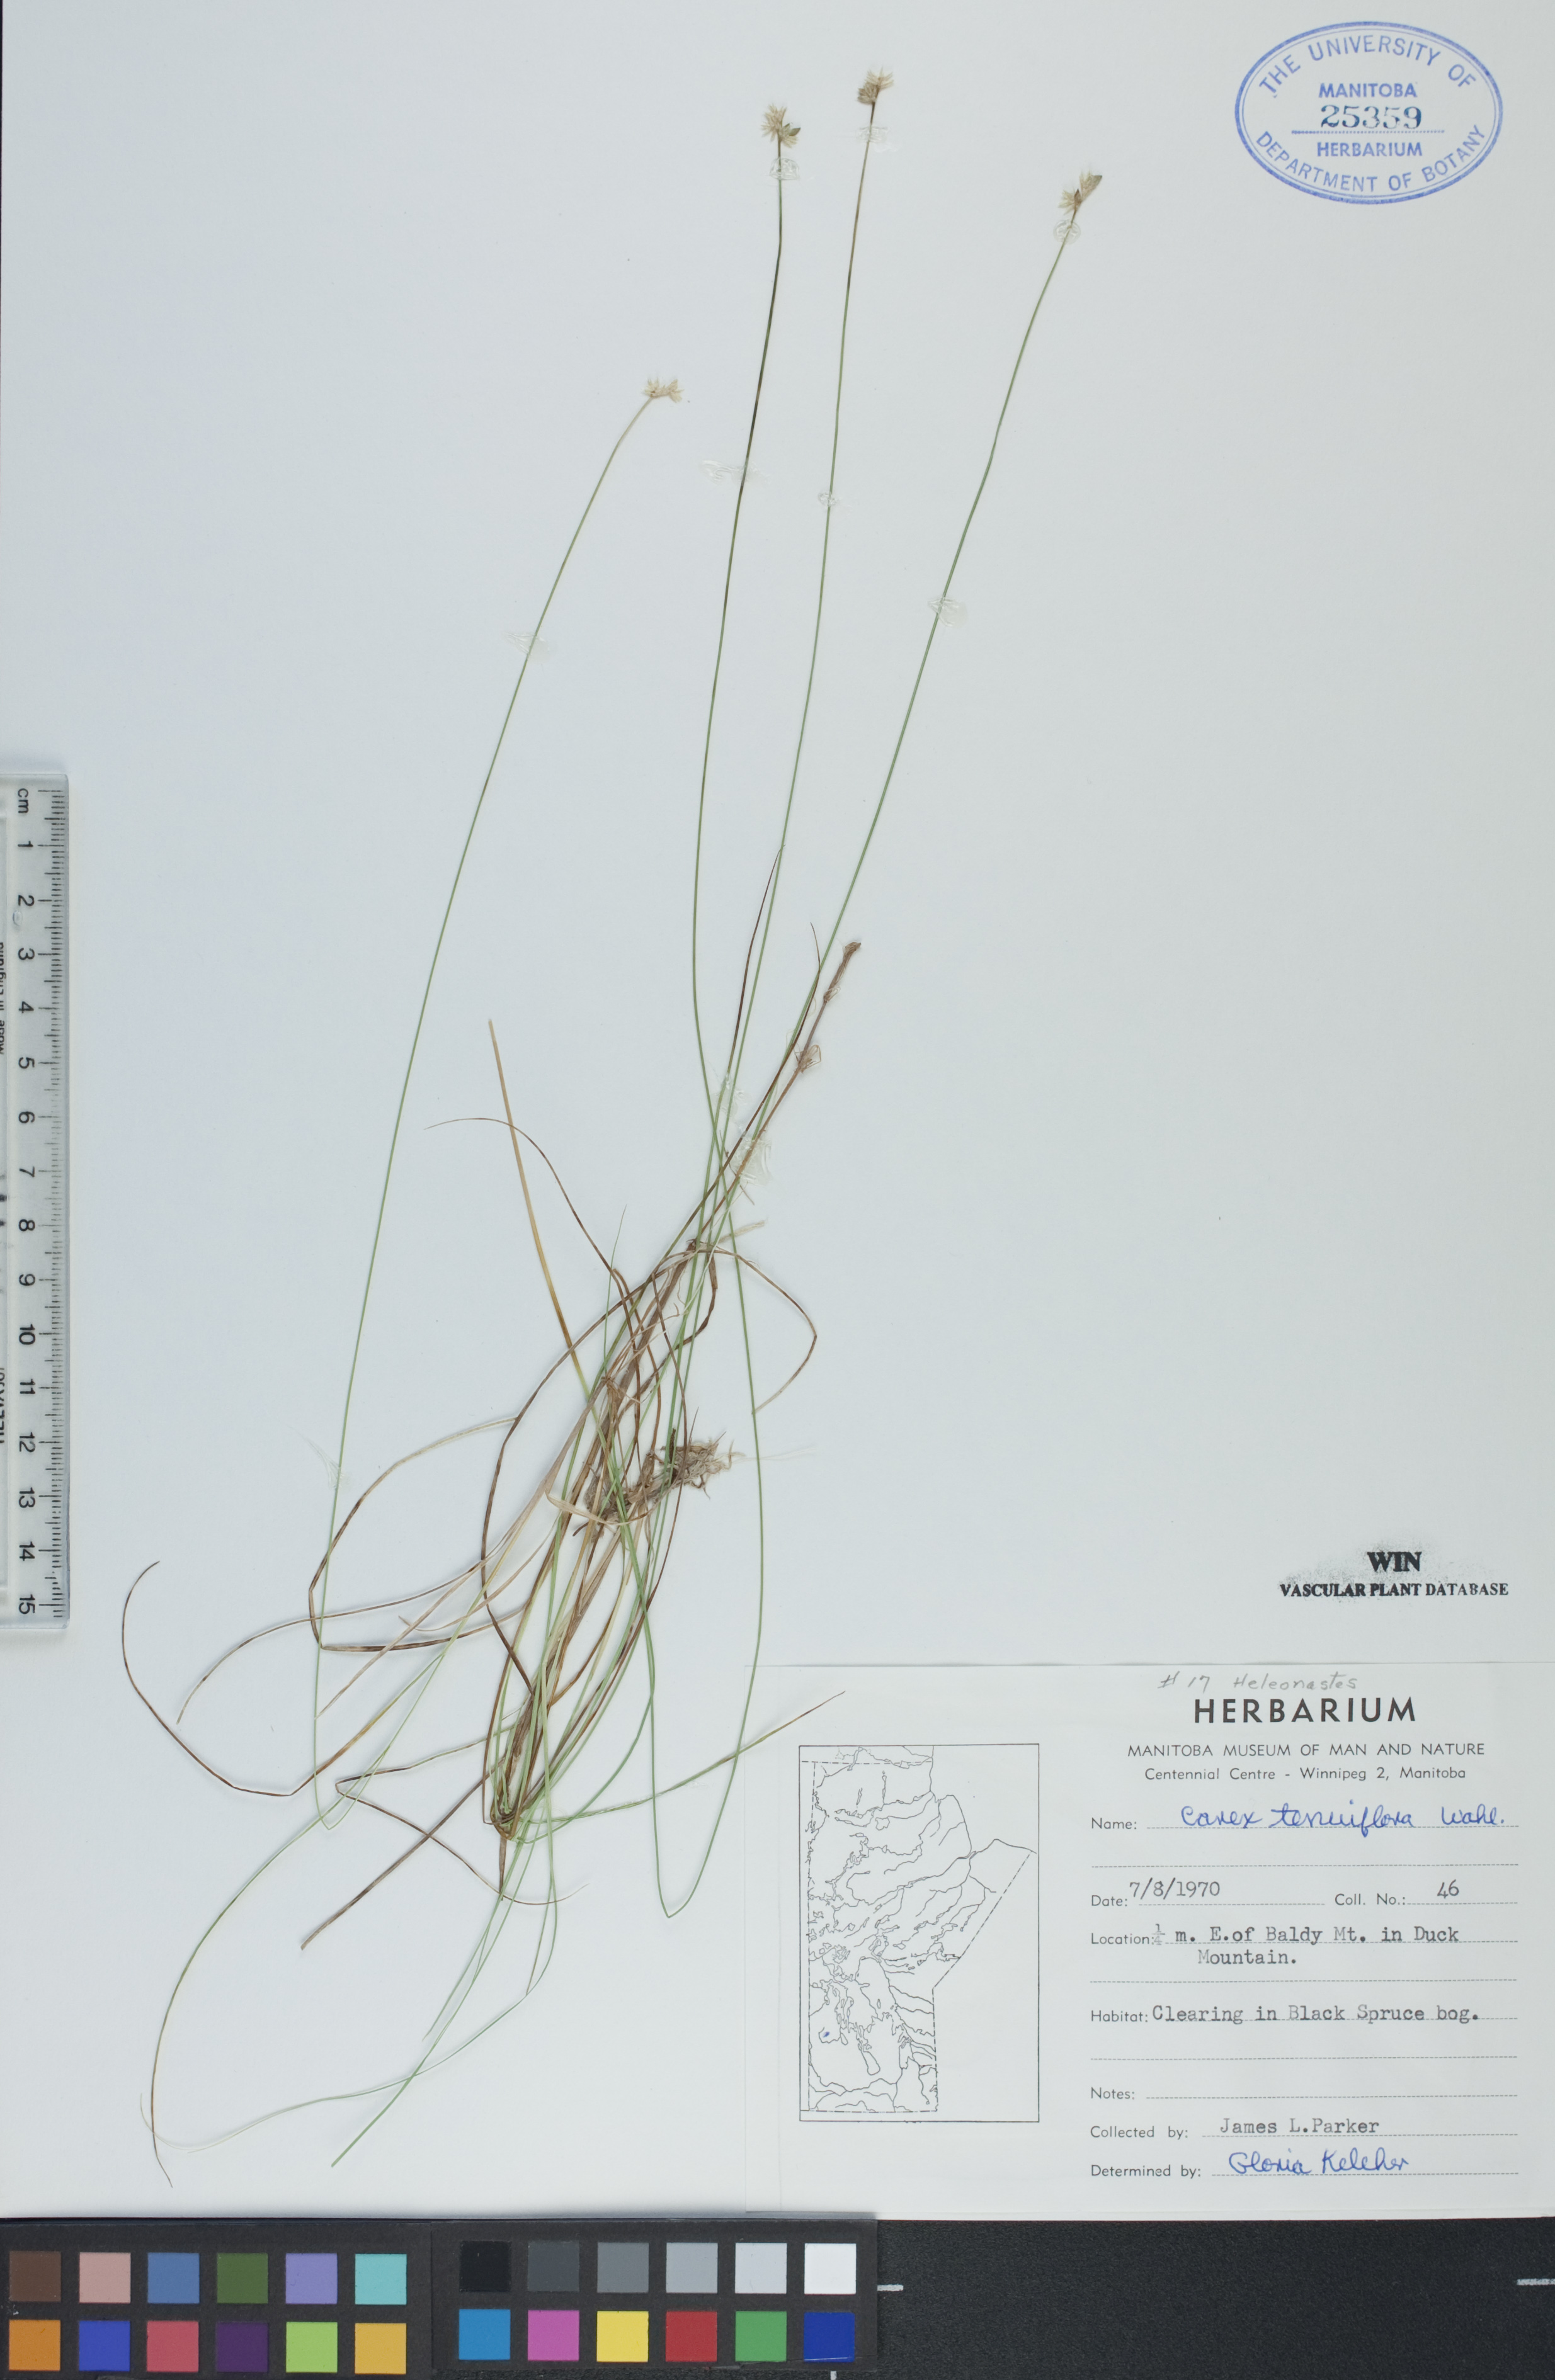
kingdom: Plantae
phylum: Tracheophyta
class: Liliopsida
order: Poales
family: Cyperaceae
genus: Carex
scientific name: Carex tenuiflora
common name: Sparse-flowered sedge
